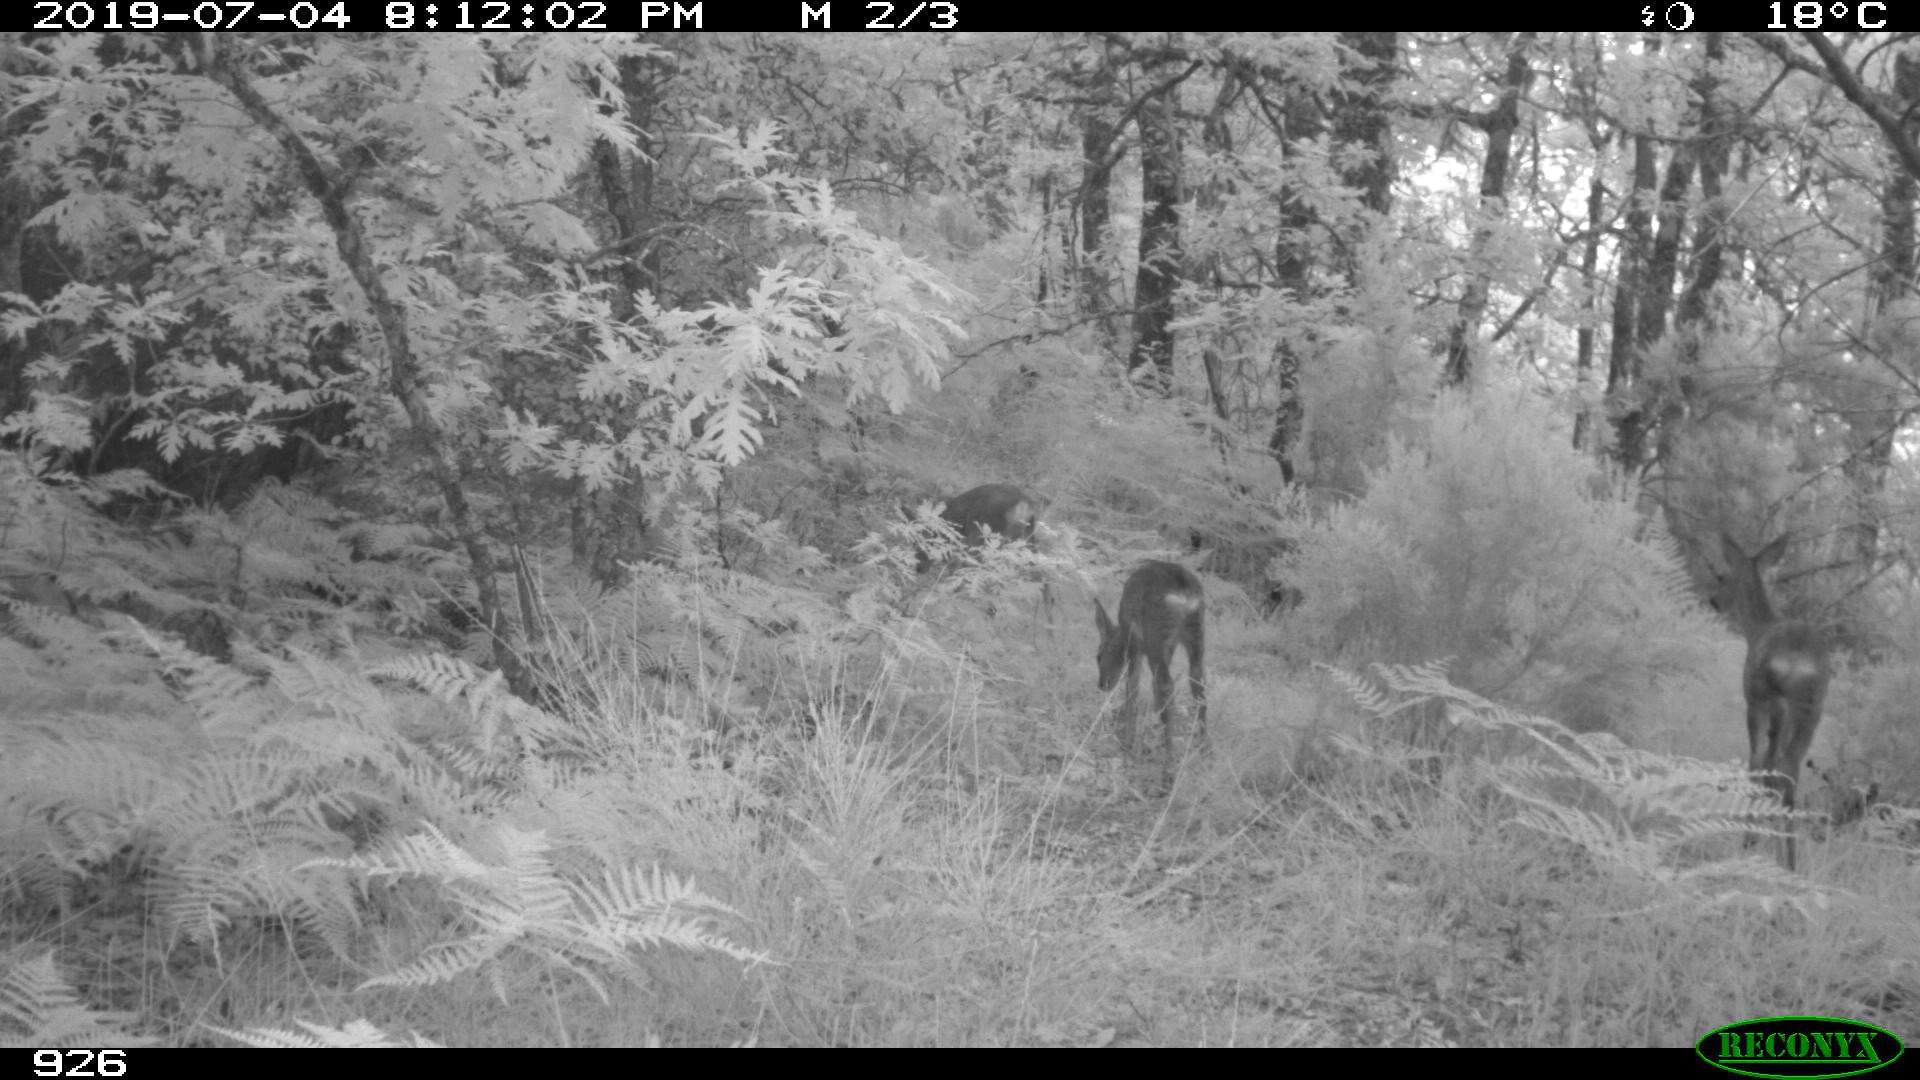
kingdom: Animalia
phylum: Chordata
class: Mammalia
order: Artiodactyla
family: Cervidae
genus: Capreolus
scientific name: Capreolus capreolus
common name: Western roe deer
